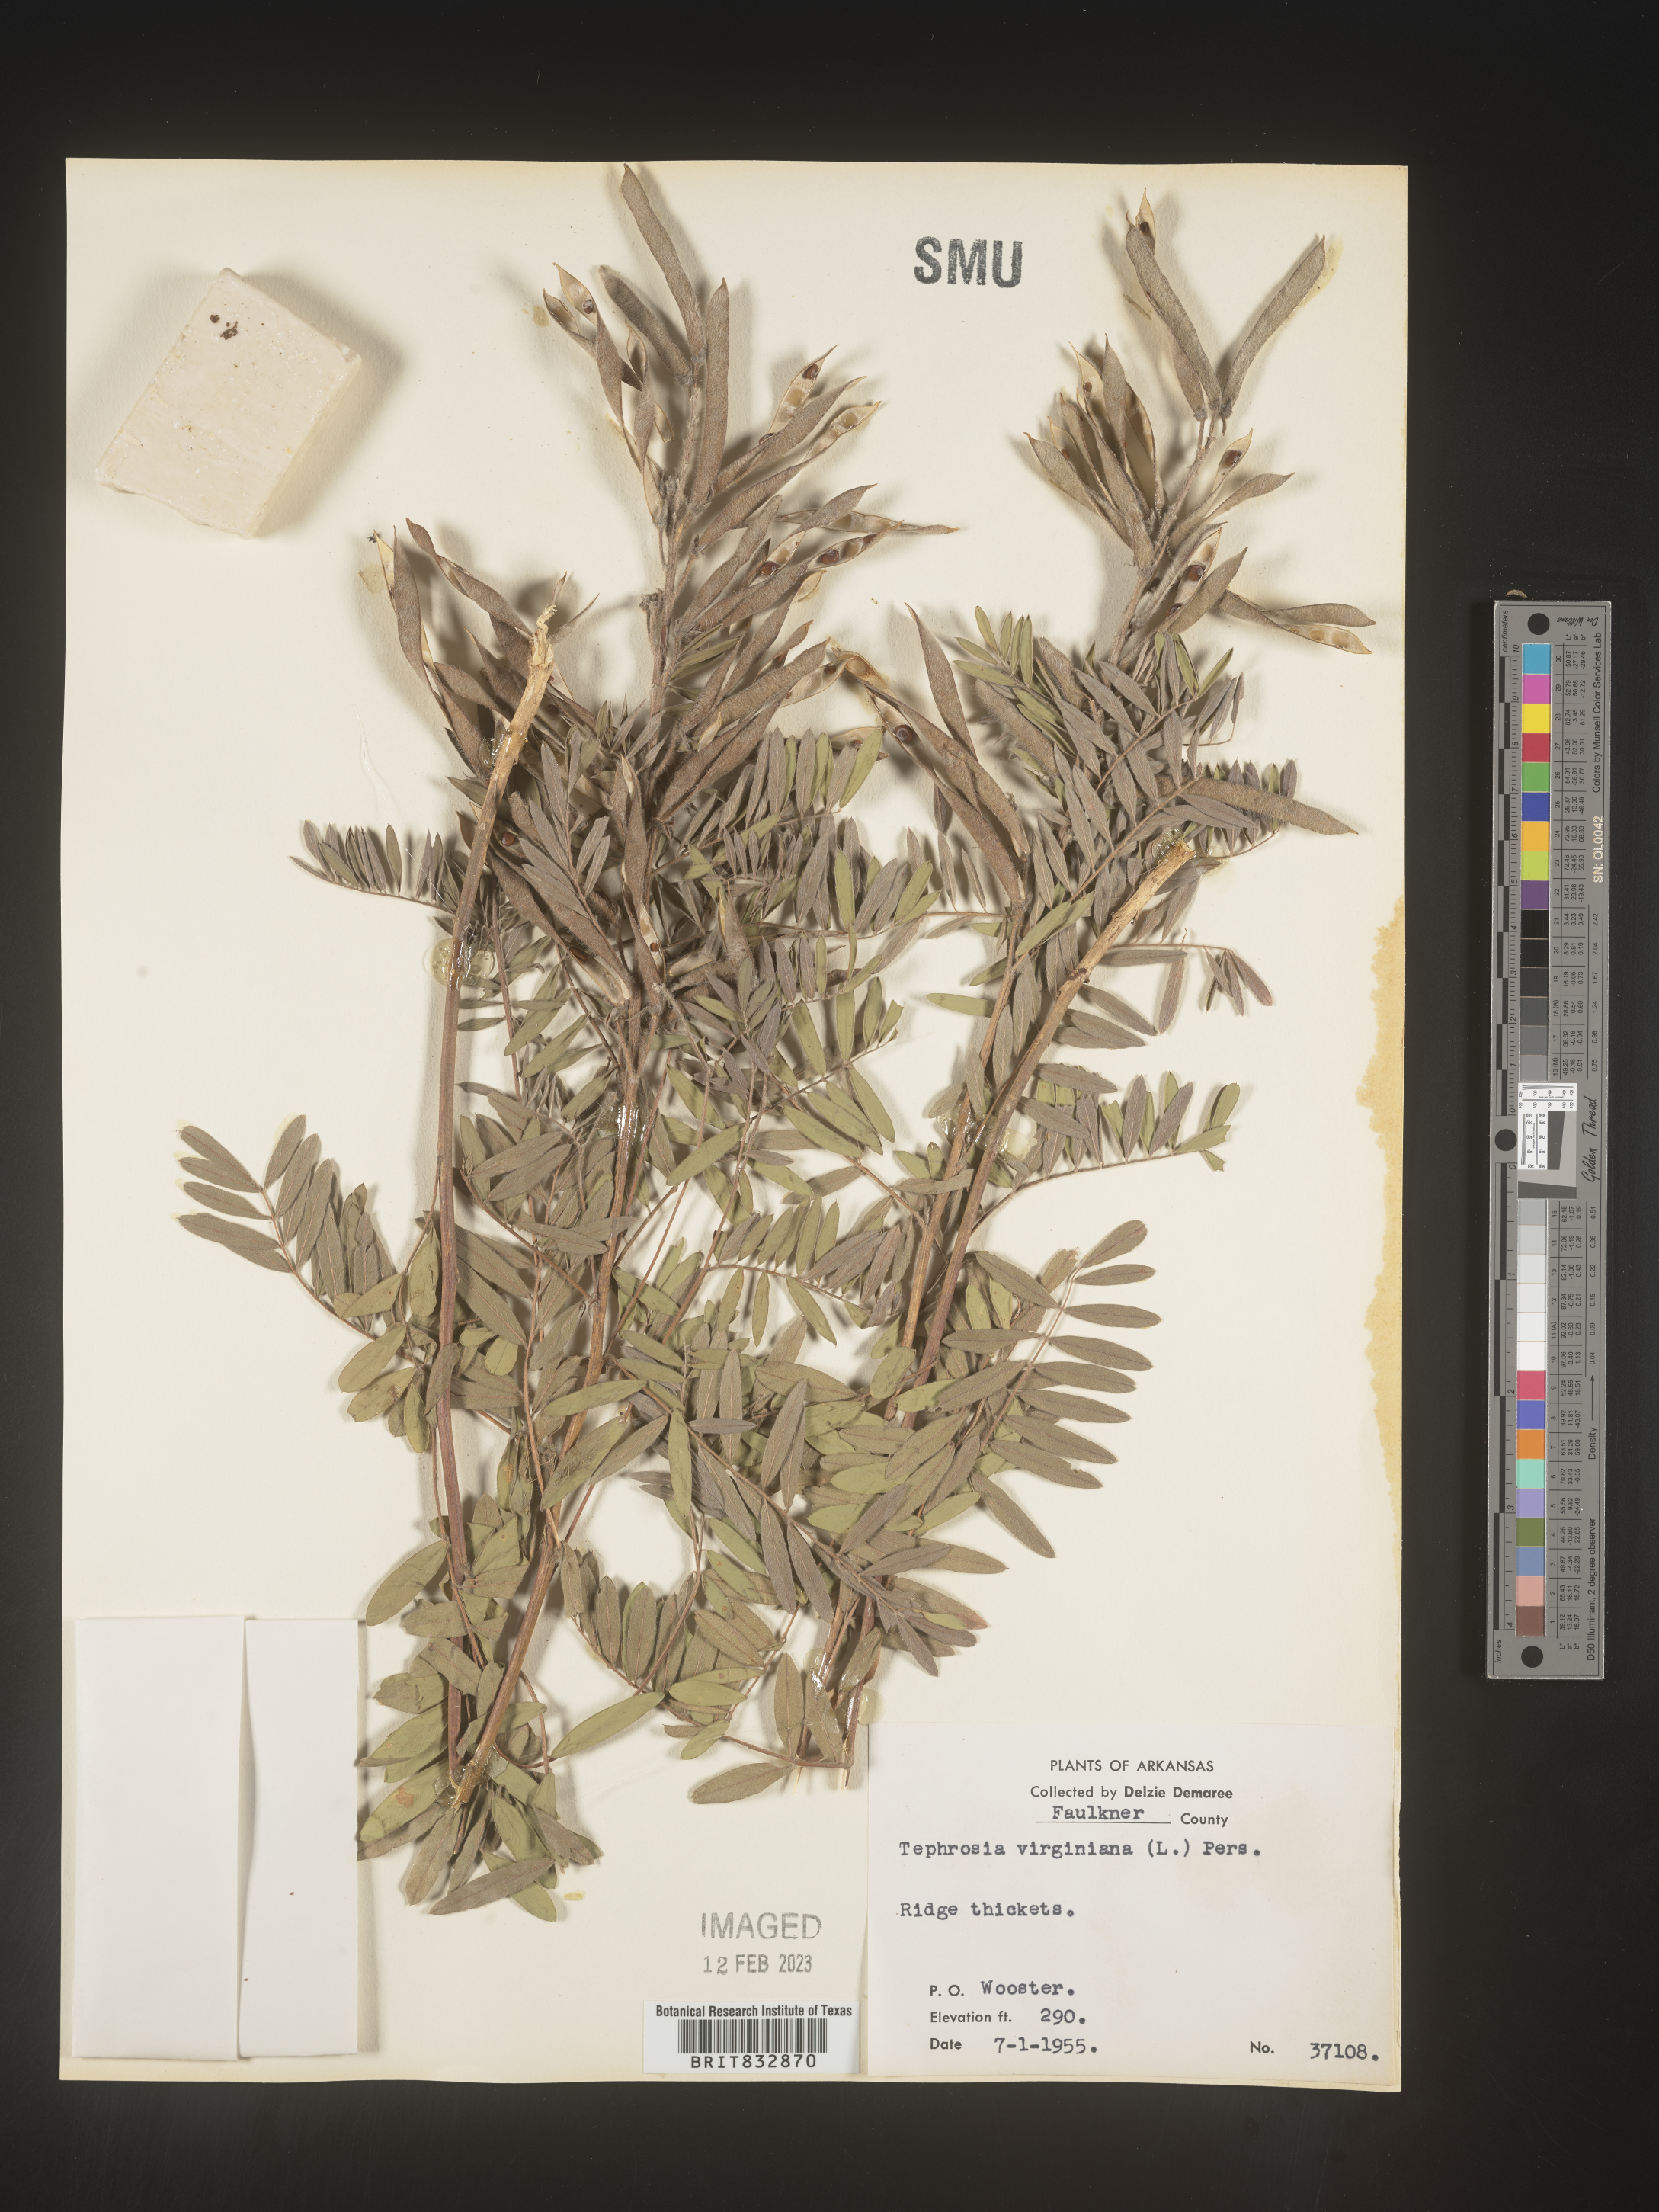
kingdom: Plantae
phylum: Tracheophyta
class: Magnoliopsida
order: Fabales
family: Fabaceae
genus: Tephrosia
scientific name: Tephrosia virginiana
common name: Rabbit-pea
